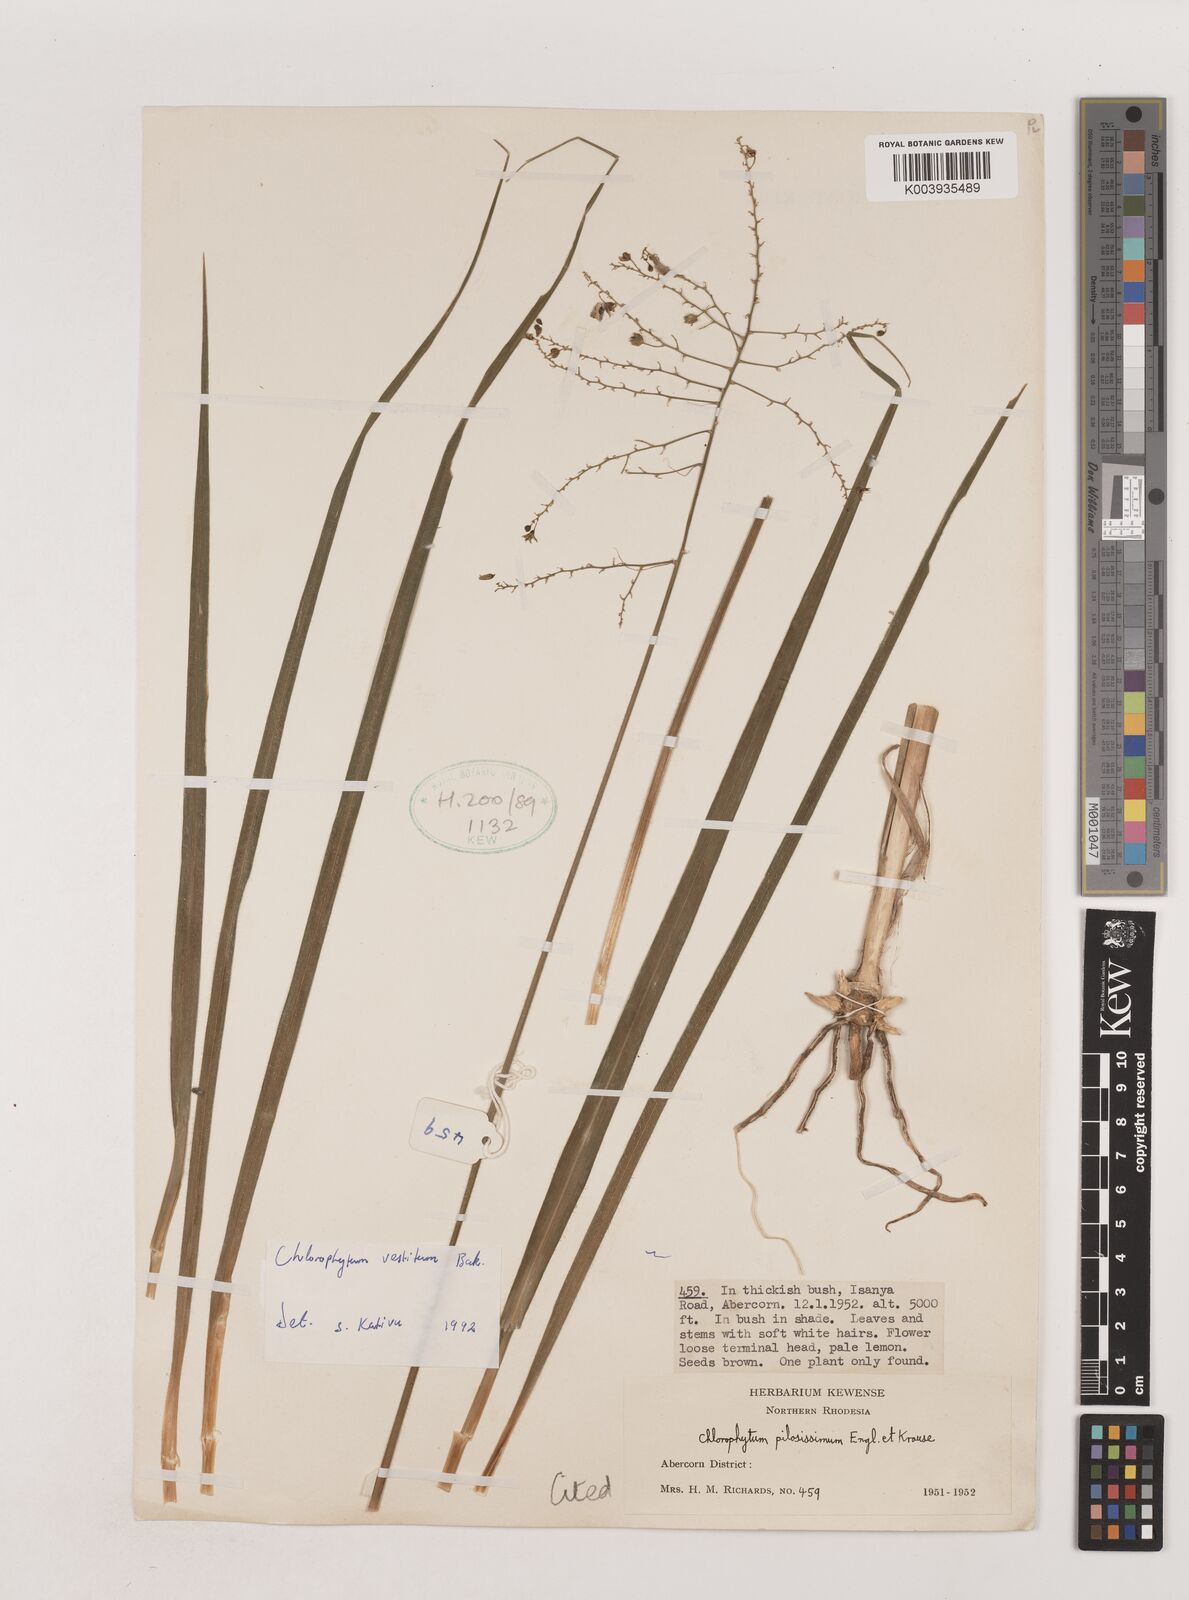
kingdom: Plantae
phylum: Tracheophyta
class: Liliopsida
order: Asparagales
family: Asparagaceae
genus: Chlorophytum
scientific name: Chlorophytum vestitum
